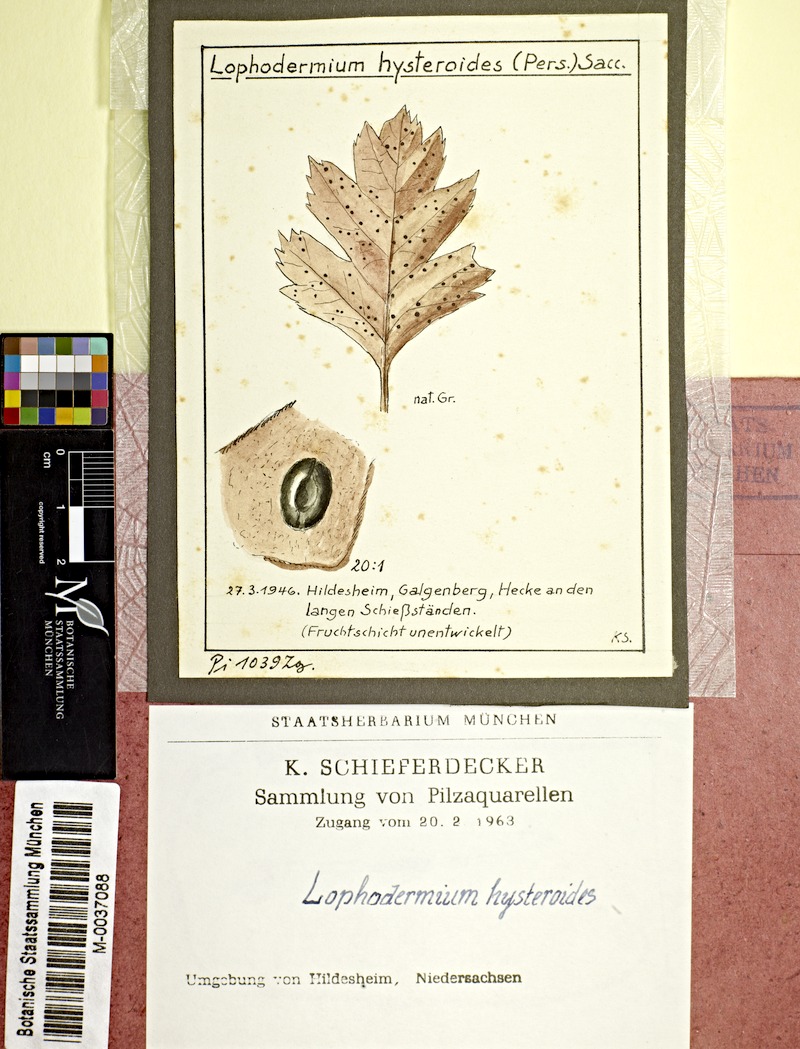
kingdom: Fungi
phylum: Ascomycota
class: Leotiomycetes
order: Rhytismatales
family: Rhytismataceae
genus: Lophodermium
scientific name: Lophodermium foliicola
